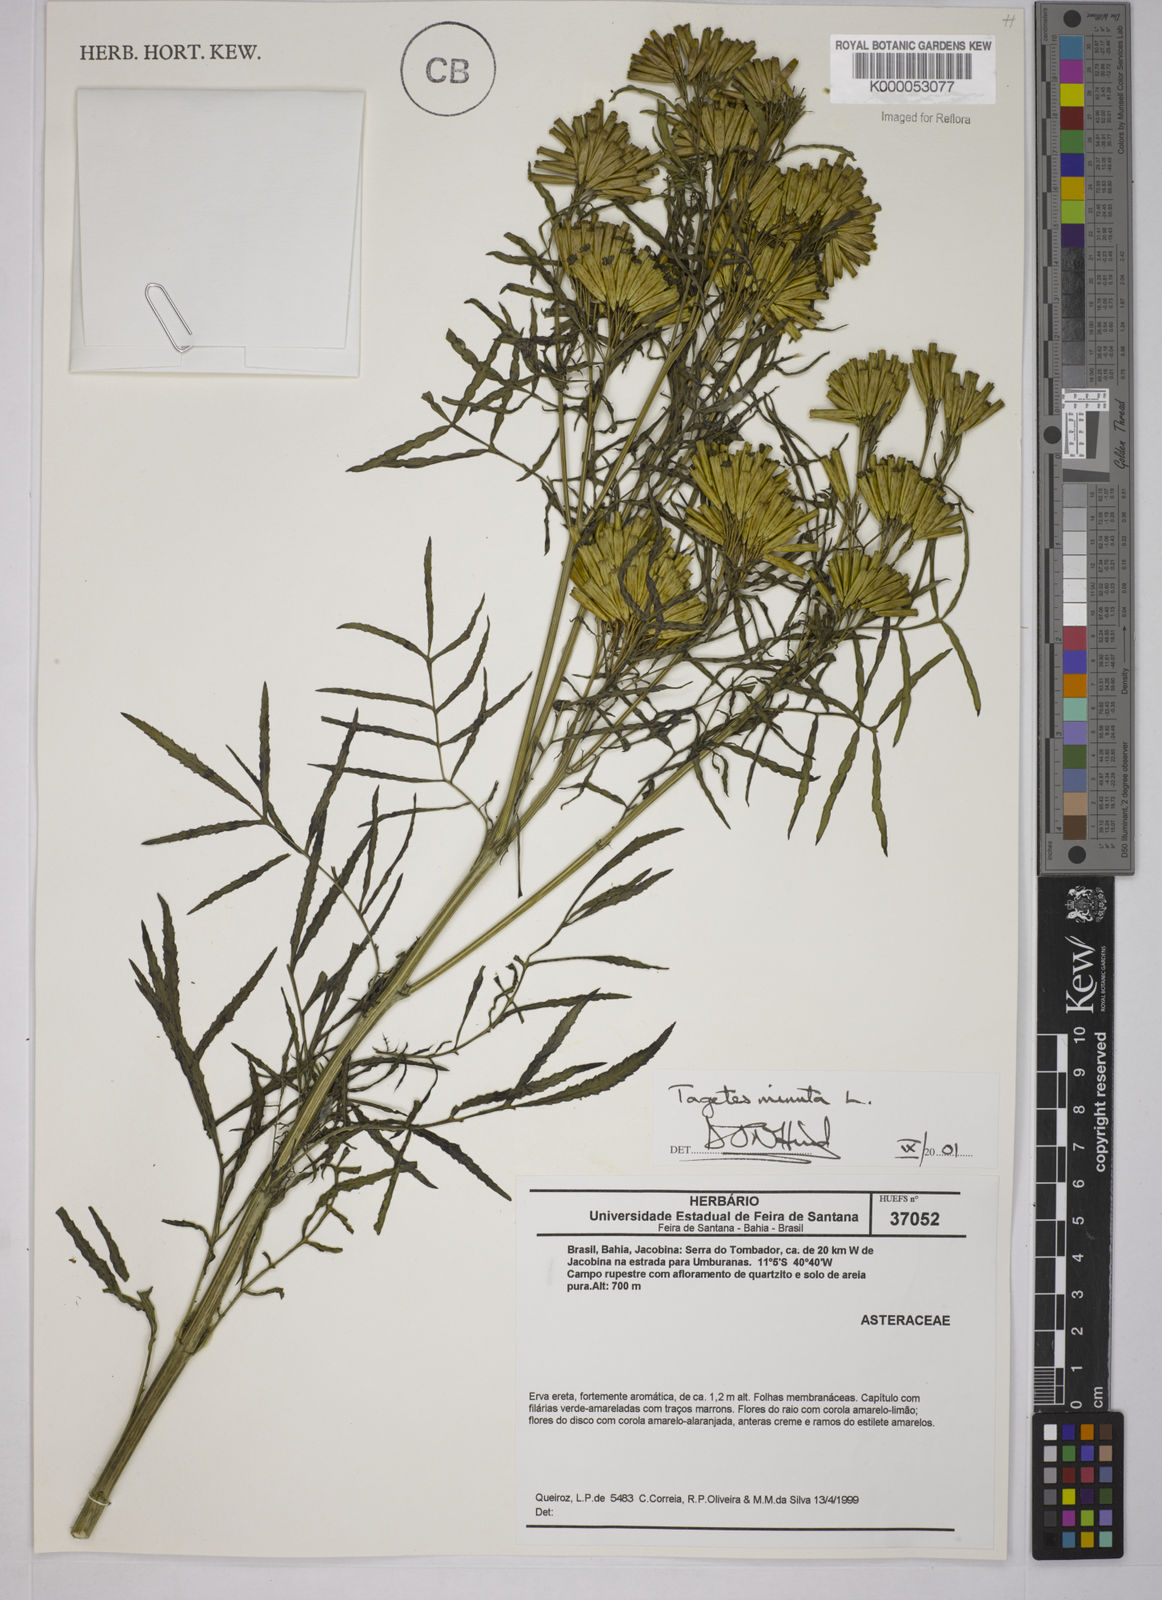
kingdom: Plantae
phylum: Tracheophyta
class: Magnoliopsida
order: Asterales
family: Asteraceae
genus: Tagetes
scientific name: Tagetes minuta
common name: Muster john henry
